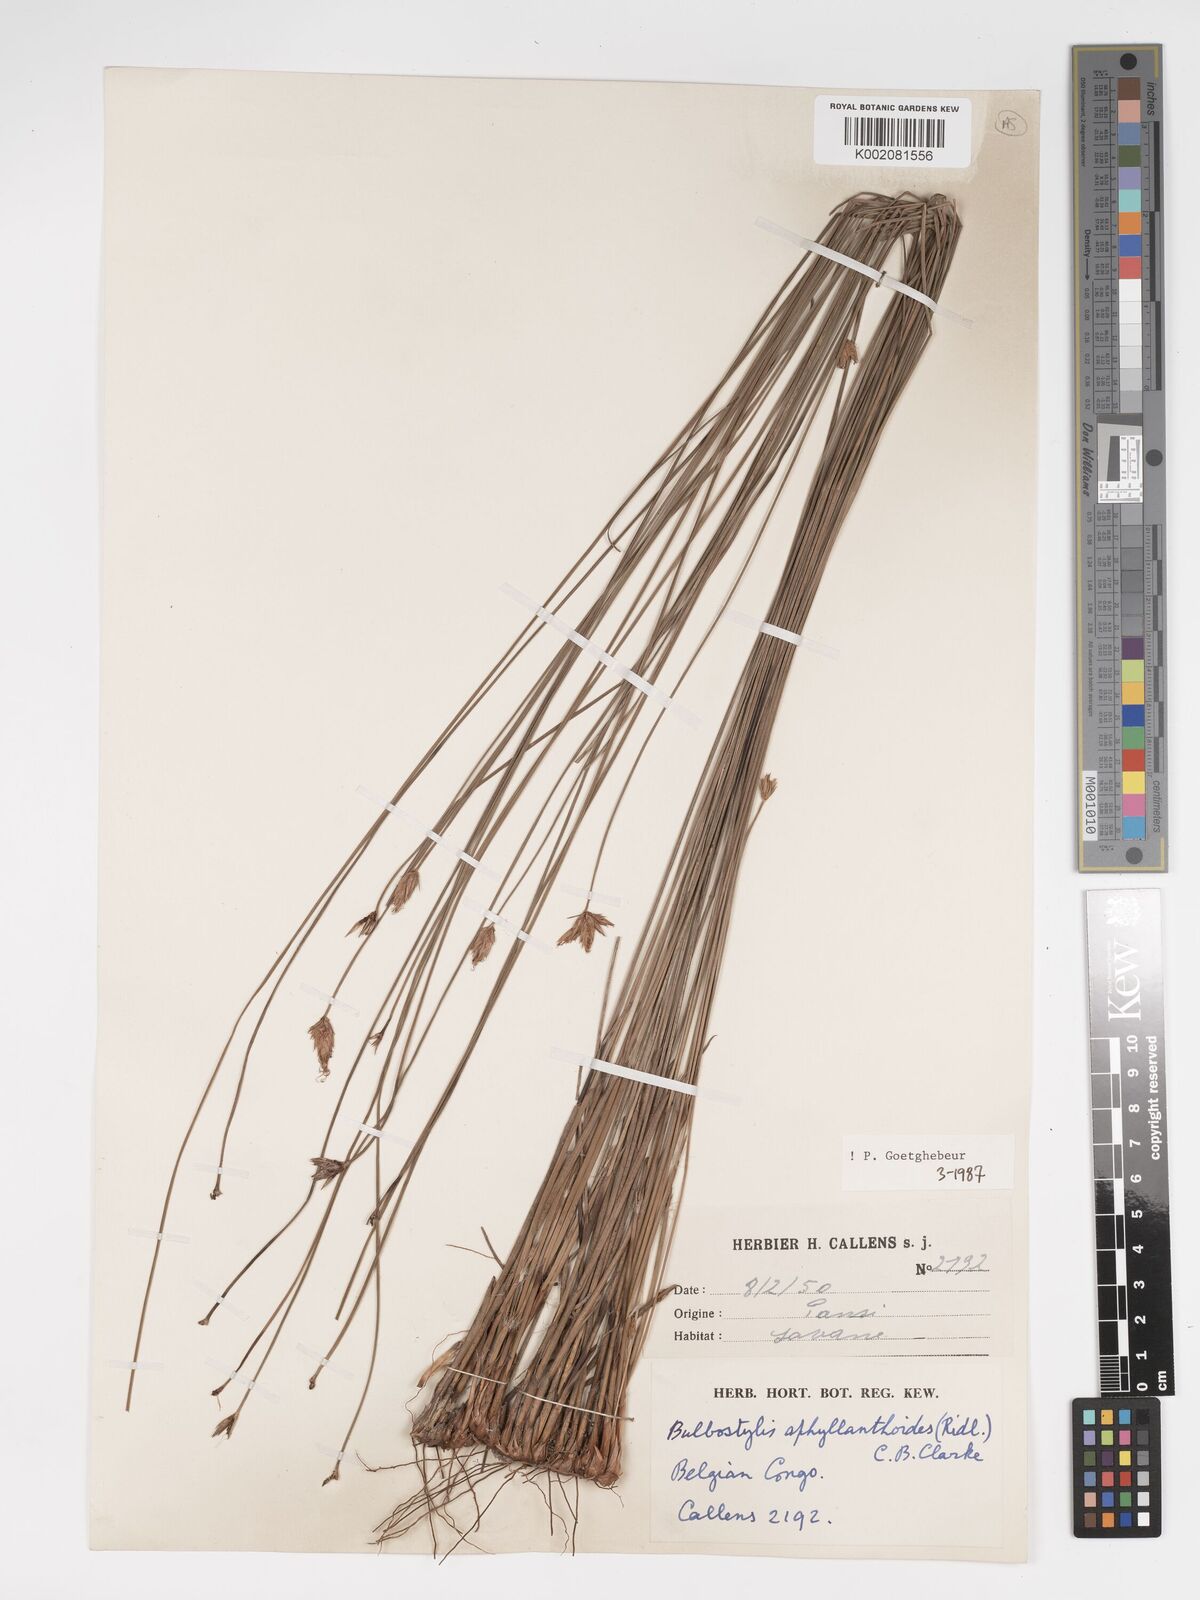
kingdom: Plantae
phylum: Tracheophyta
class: Liliopsida
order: Poales
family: Cyperaceae
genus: Bulbostylis
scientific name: Bulbostylis pilosa
